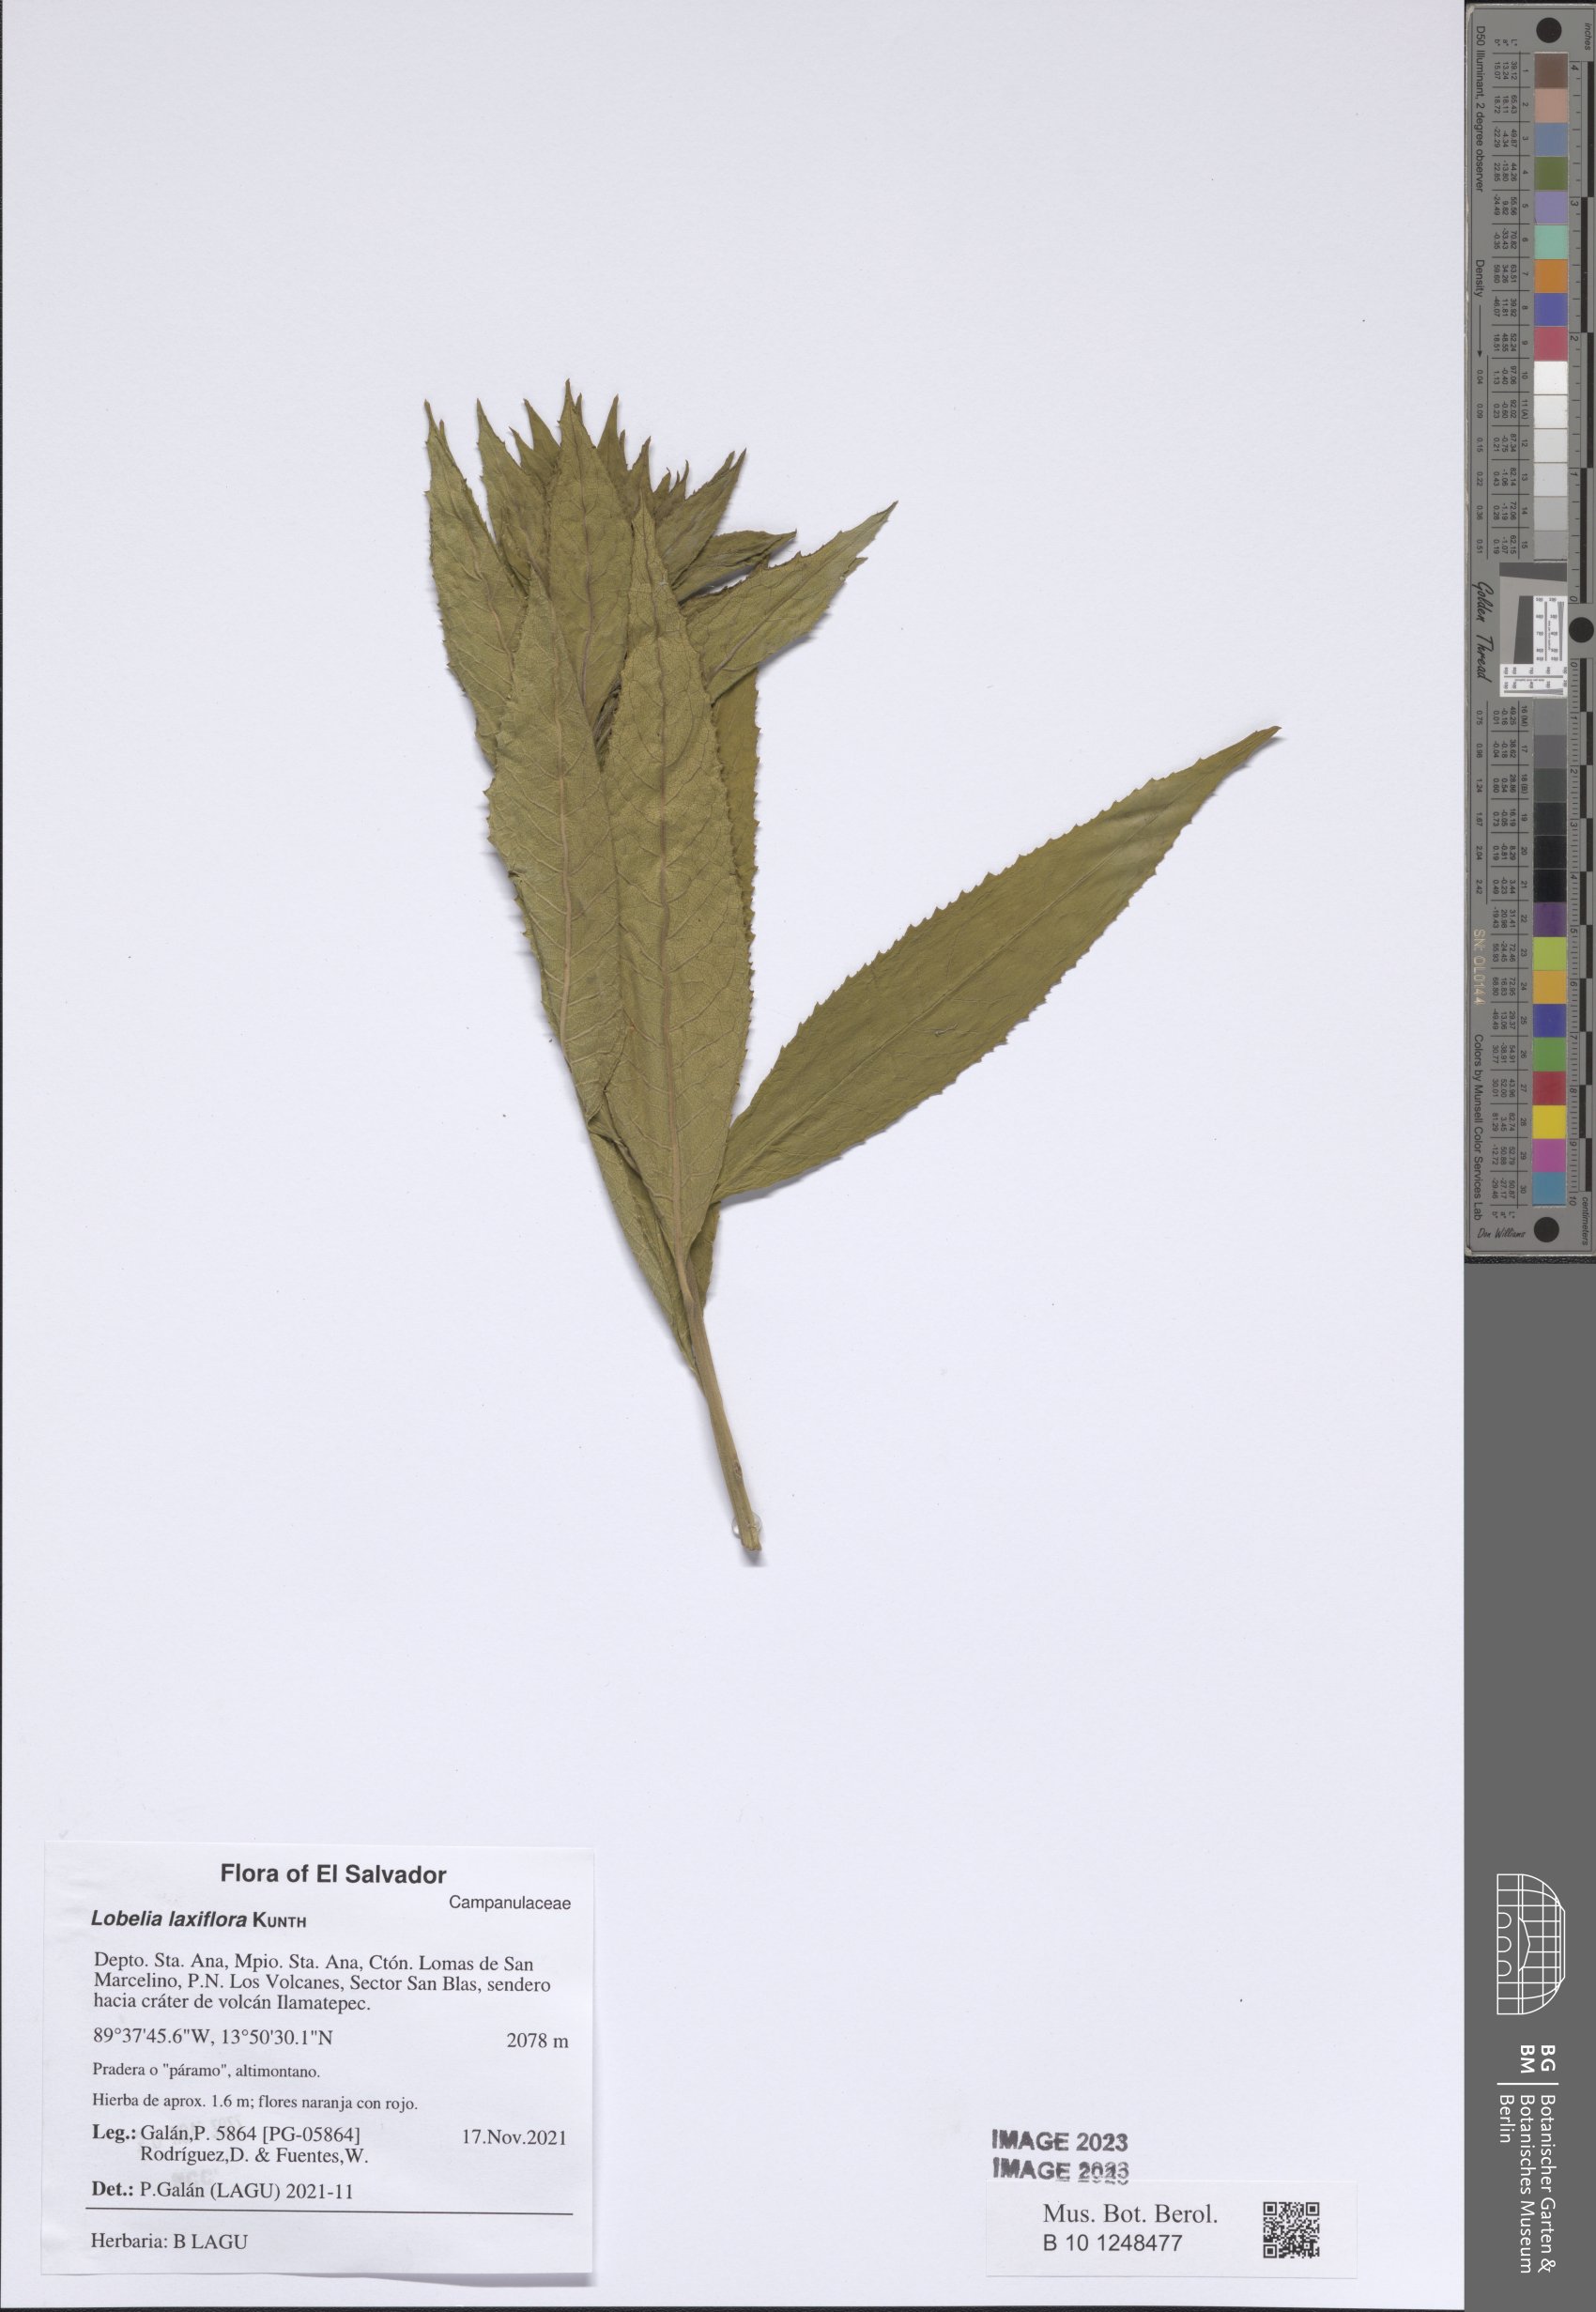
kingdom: Plantae
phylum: Tracheophyta
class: Magnoliopsida
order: Asterales
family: Campanulaceae
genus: Lobelia
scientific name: Lobelia laxiflora
